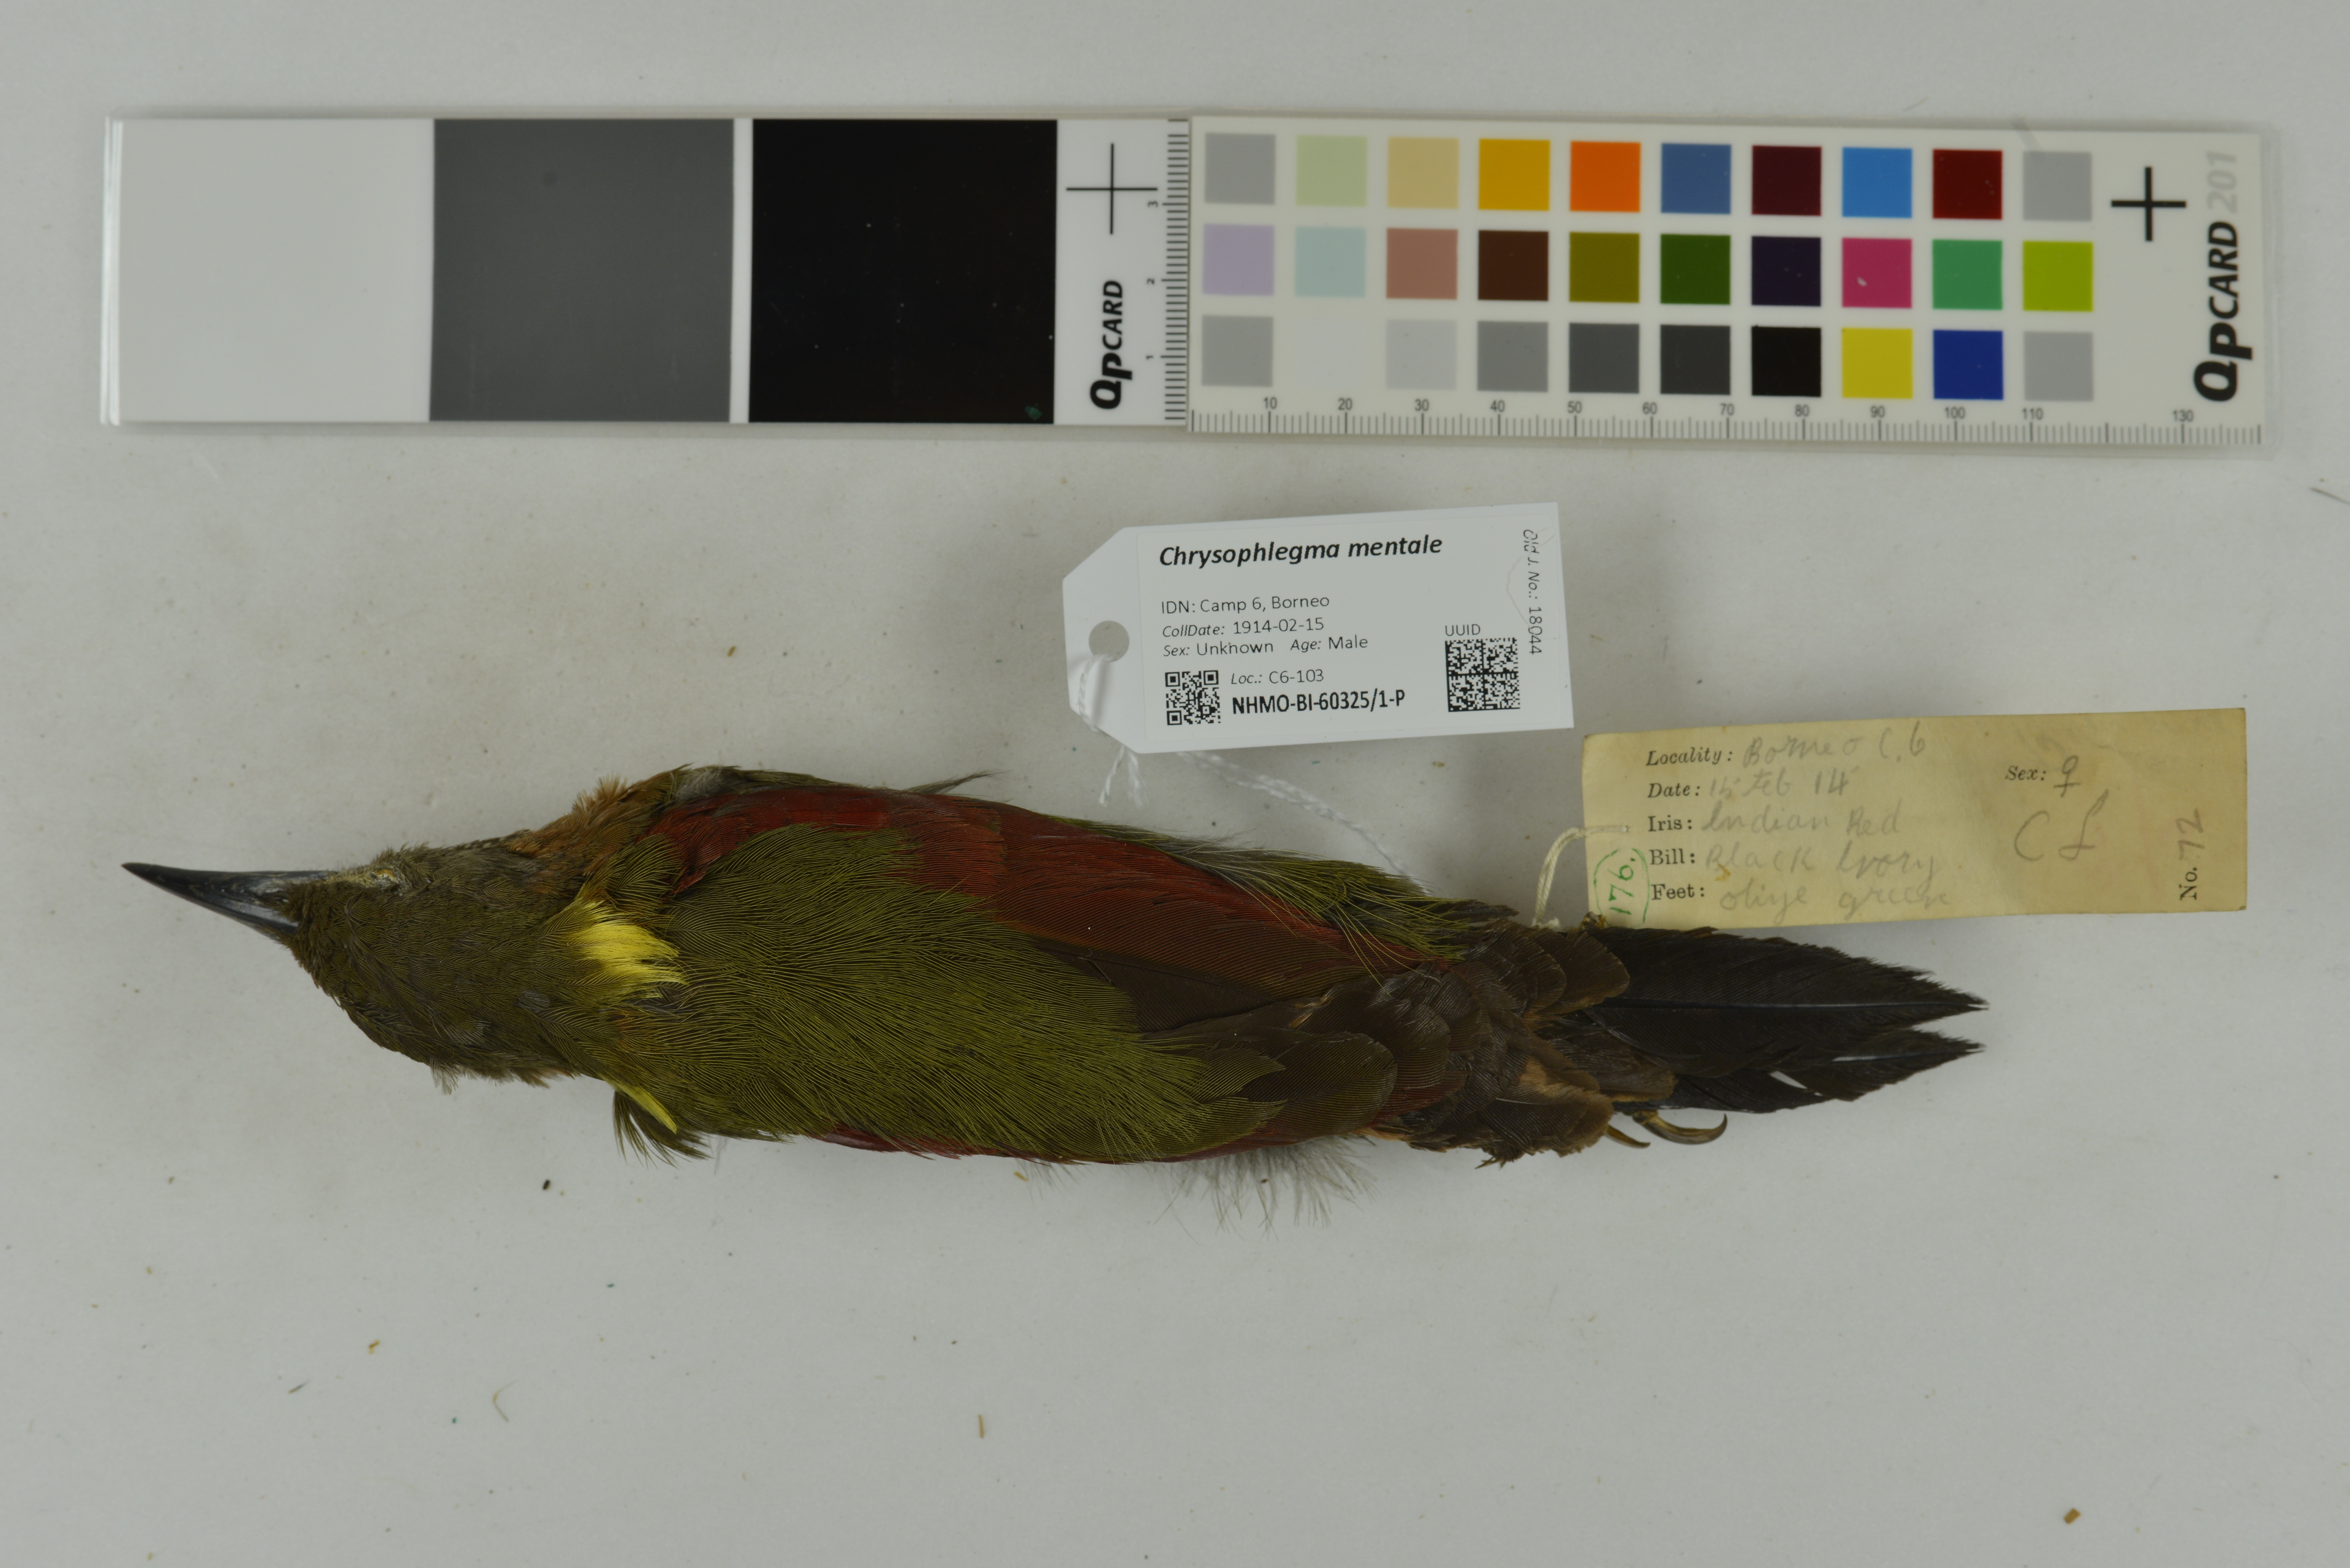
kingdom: Animalia
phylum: Chordata
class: Aves
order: Piciformes
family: Picidae
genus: Chrysophlegma
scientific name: Chrysophlegma mentale
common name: Checker-throated woodpecker
